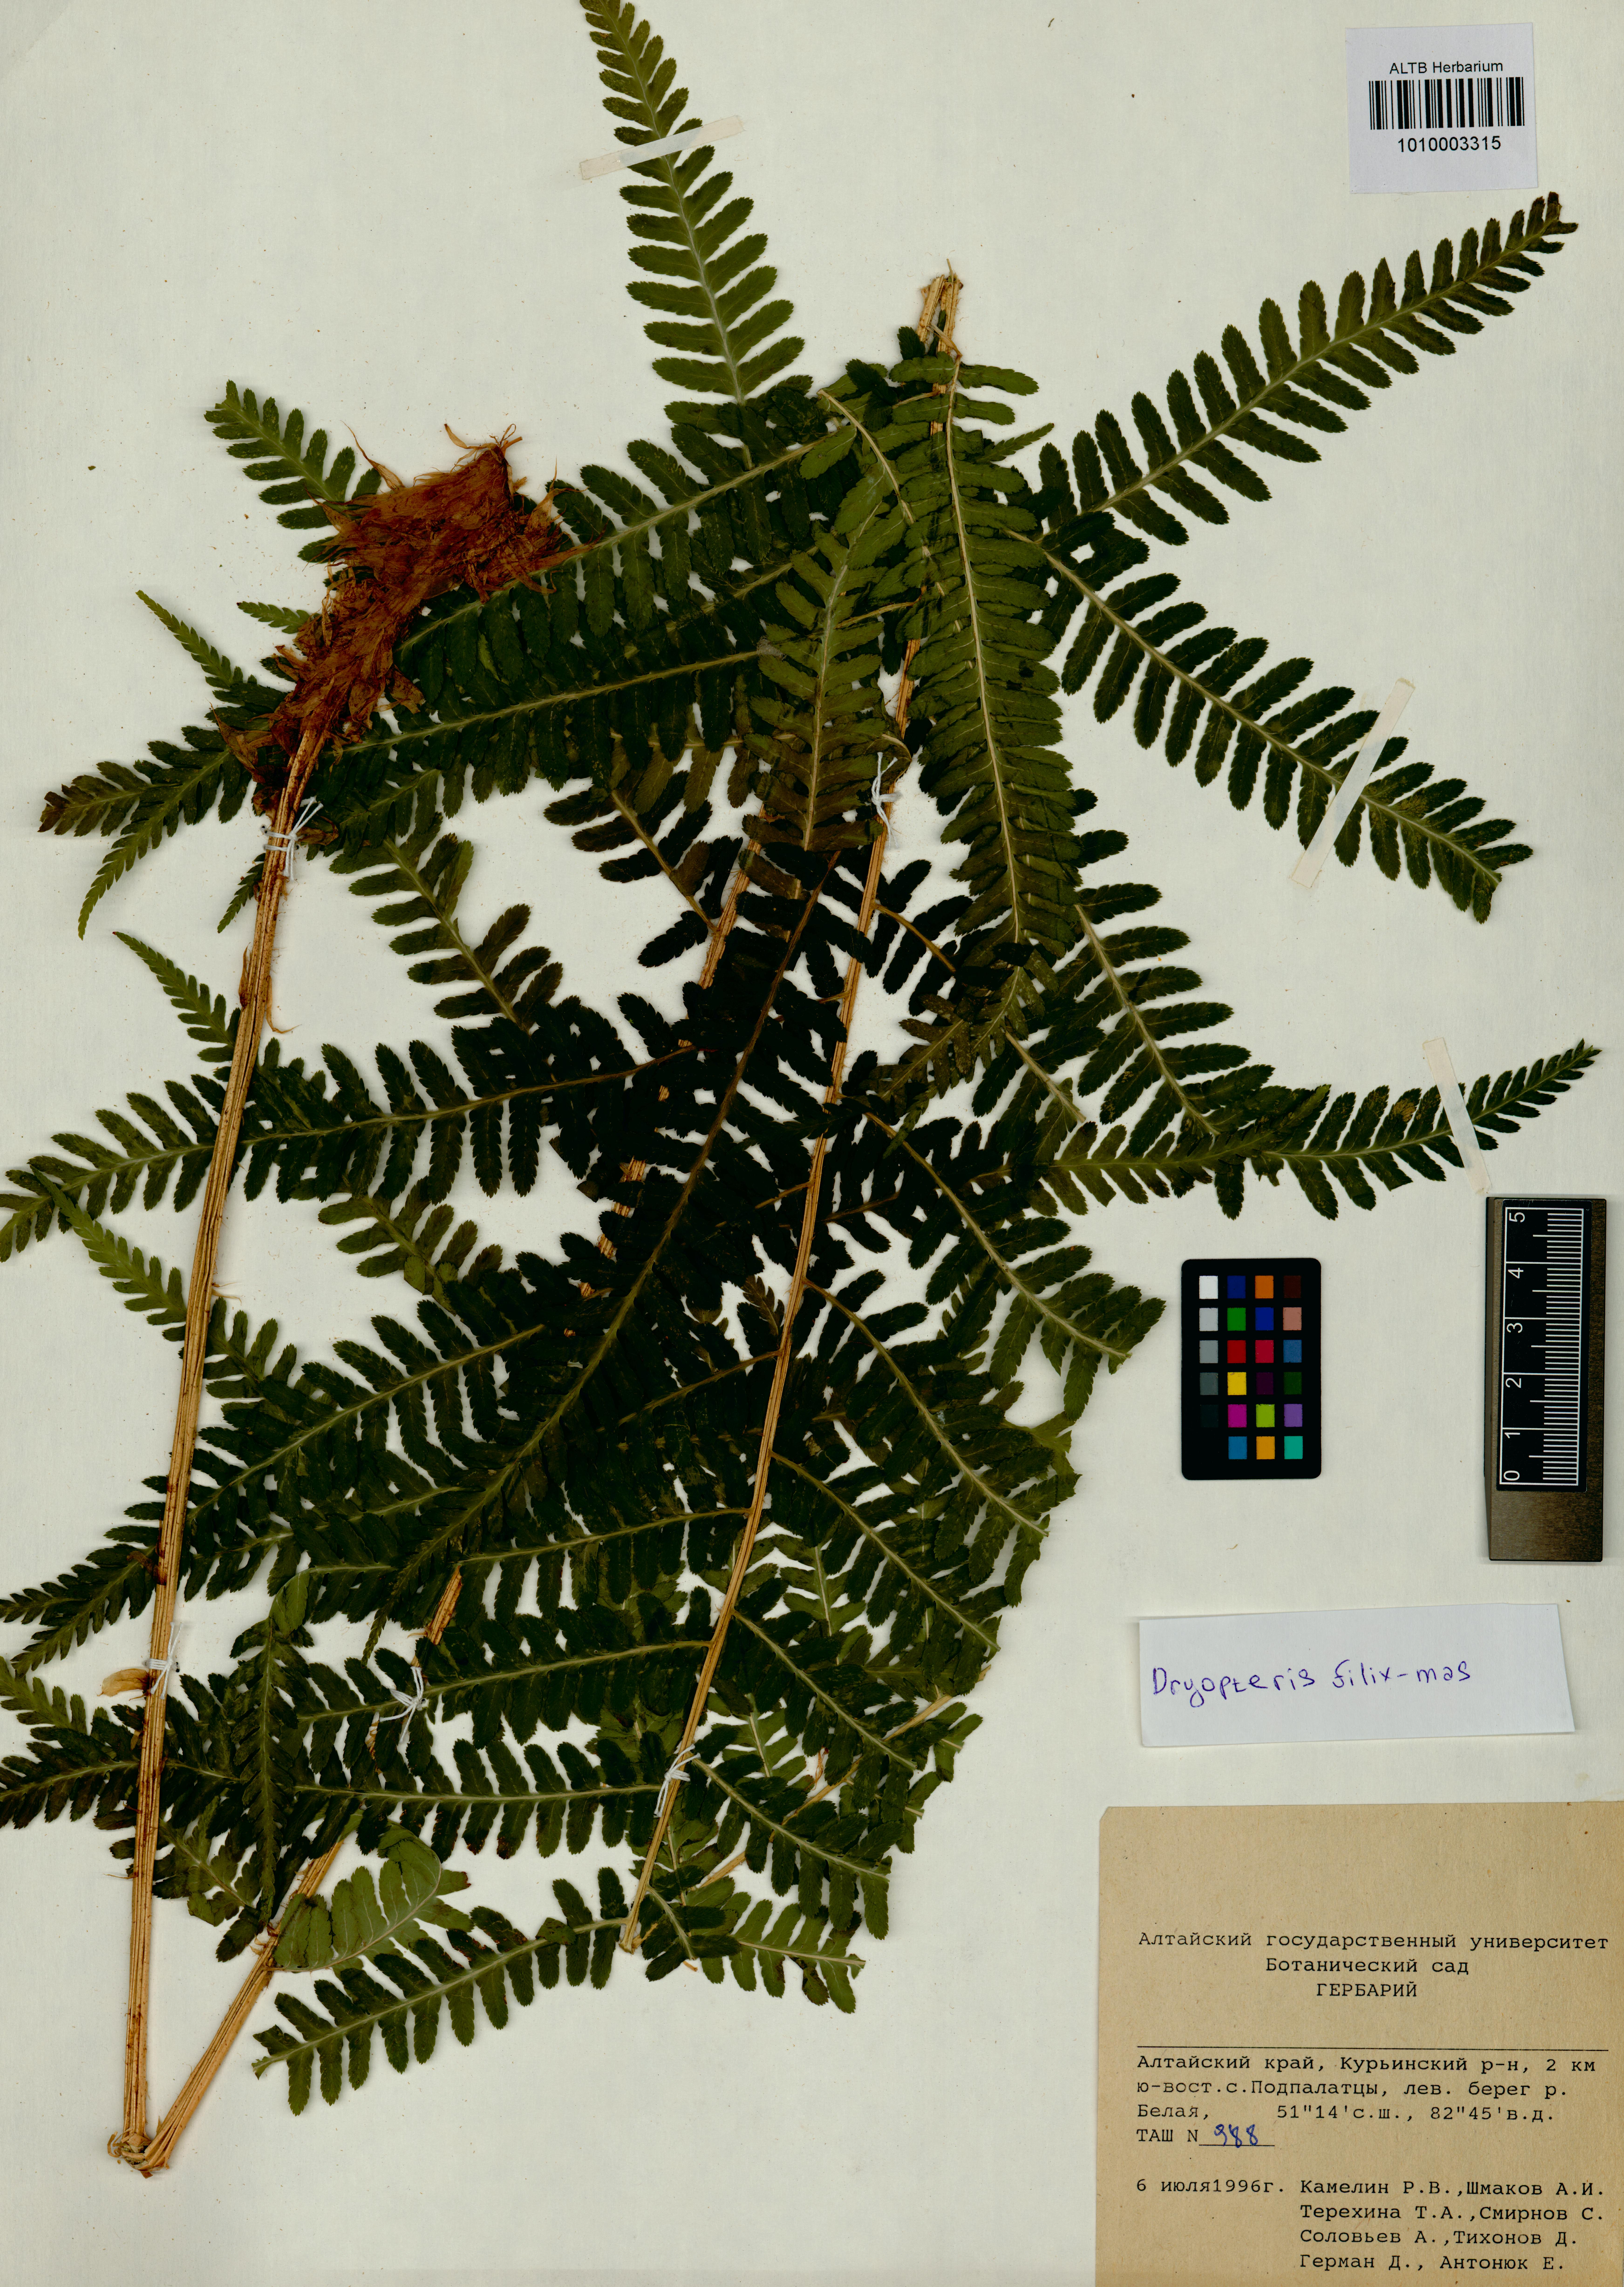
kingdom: Plantae
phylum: Tracheophyta
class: Polypodiopsida
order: Polypodiales
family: Dryopteridaceae
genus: Dryopteris
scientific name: Dryopteris filix-mas
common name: Male fern
